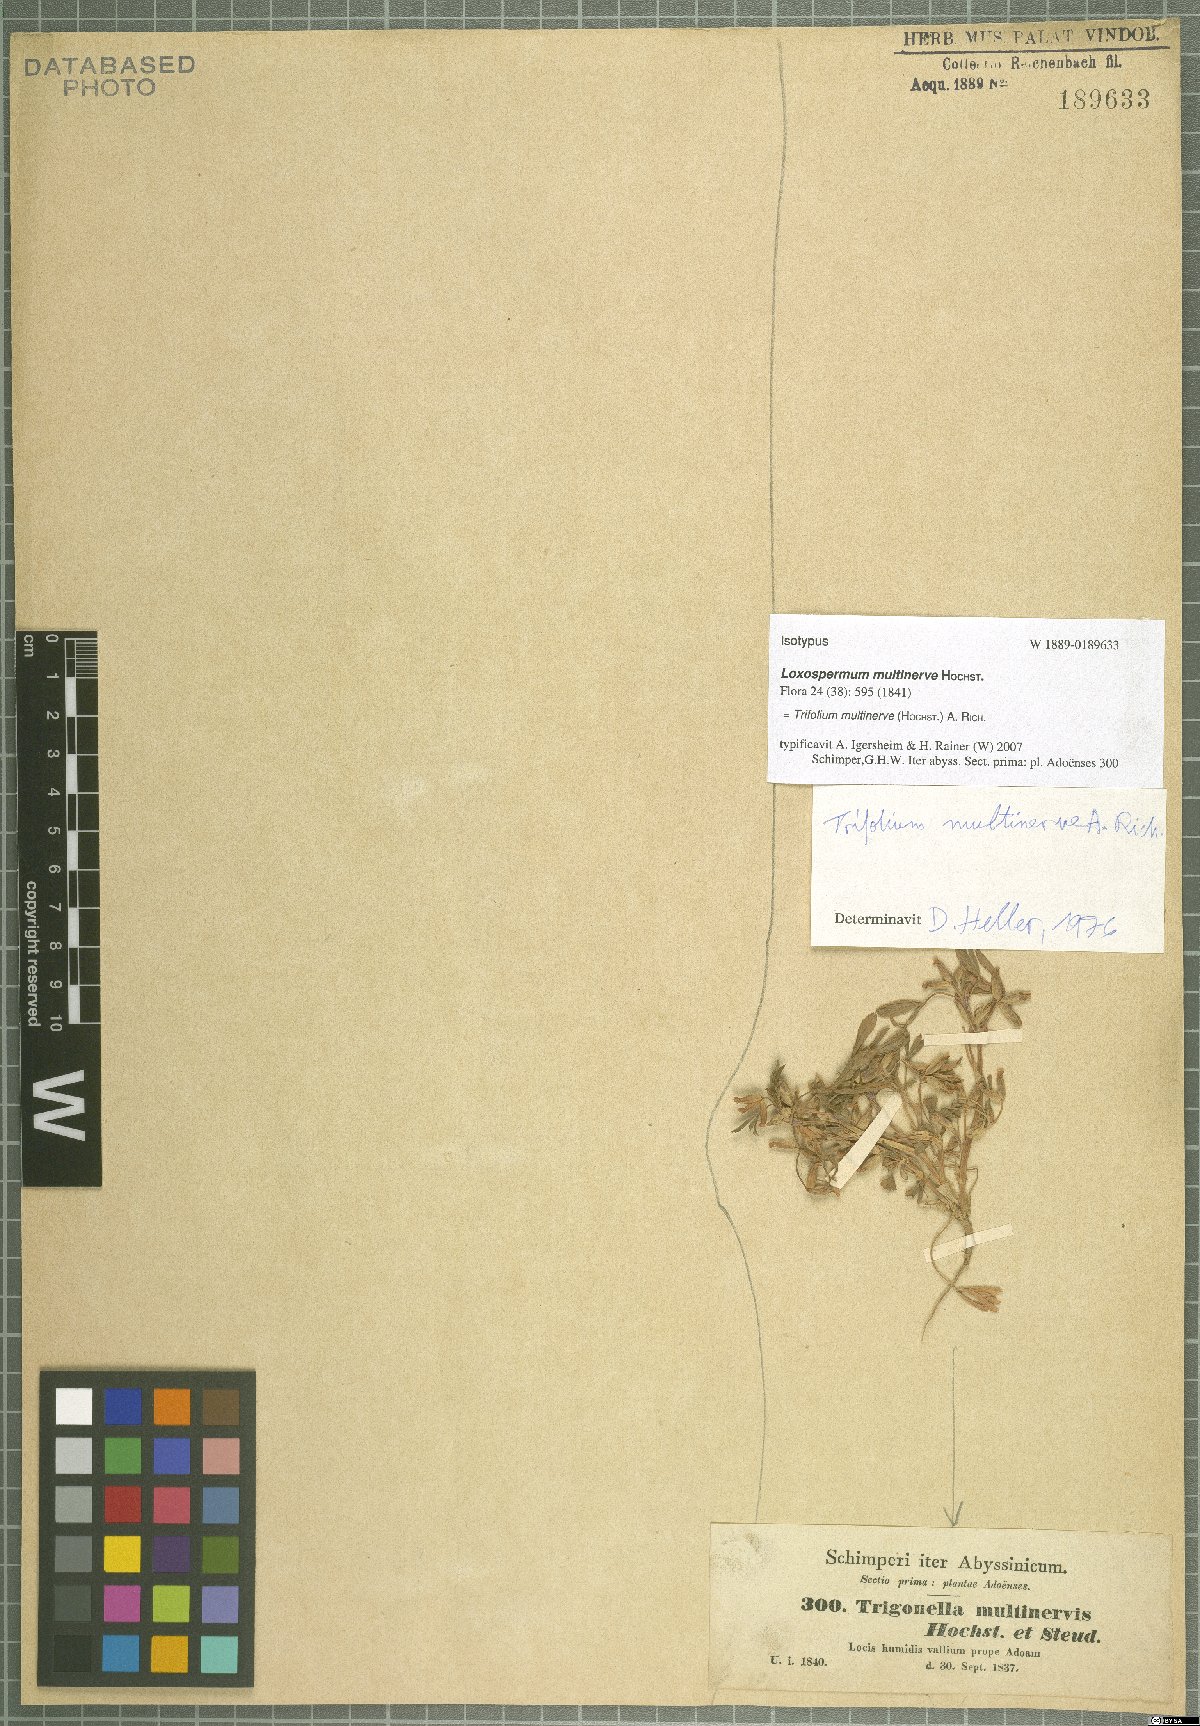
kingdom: Plantae
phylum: Tracheophyta
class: Magnoliopsida
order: Fabales
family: Fabaceae
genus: Trifolium
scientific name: Trifolium multinerve
